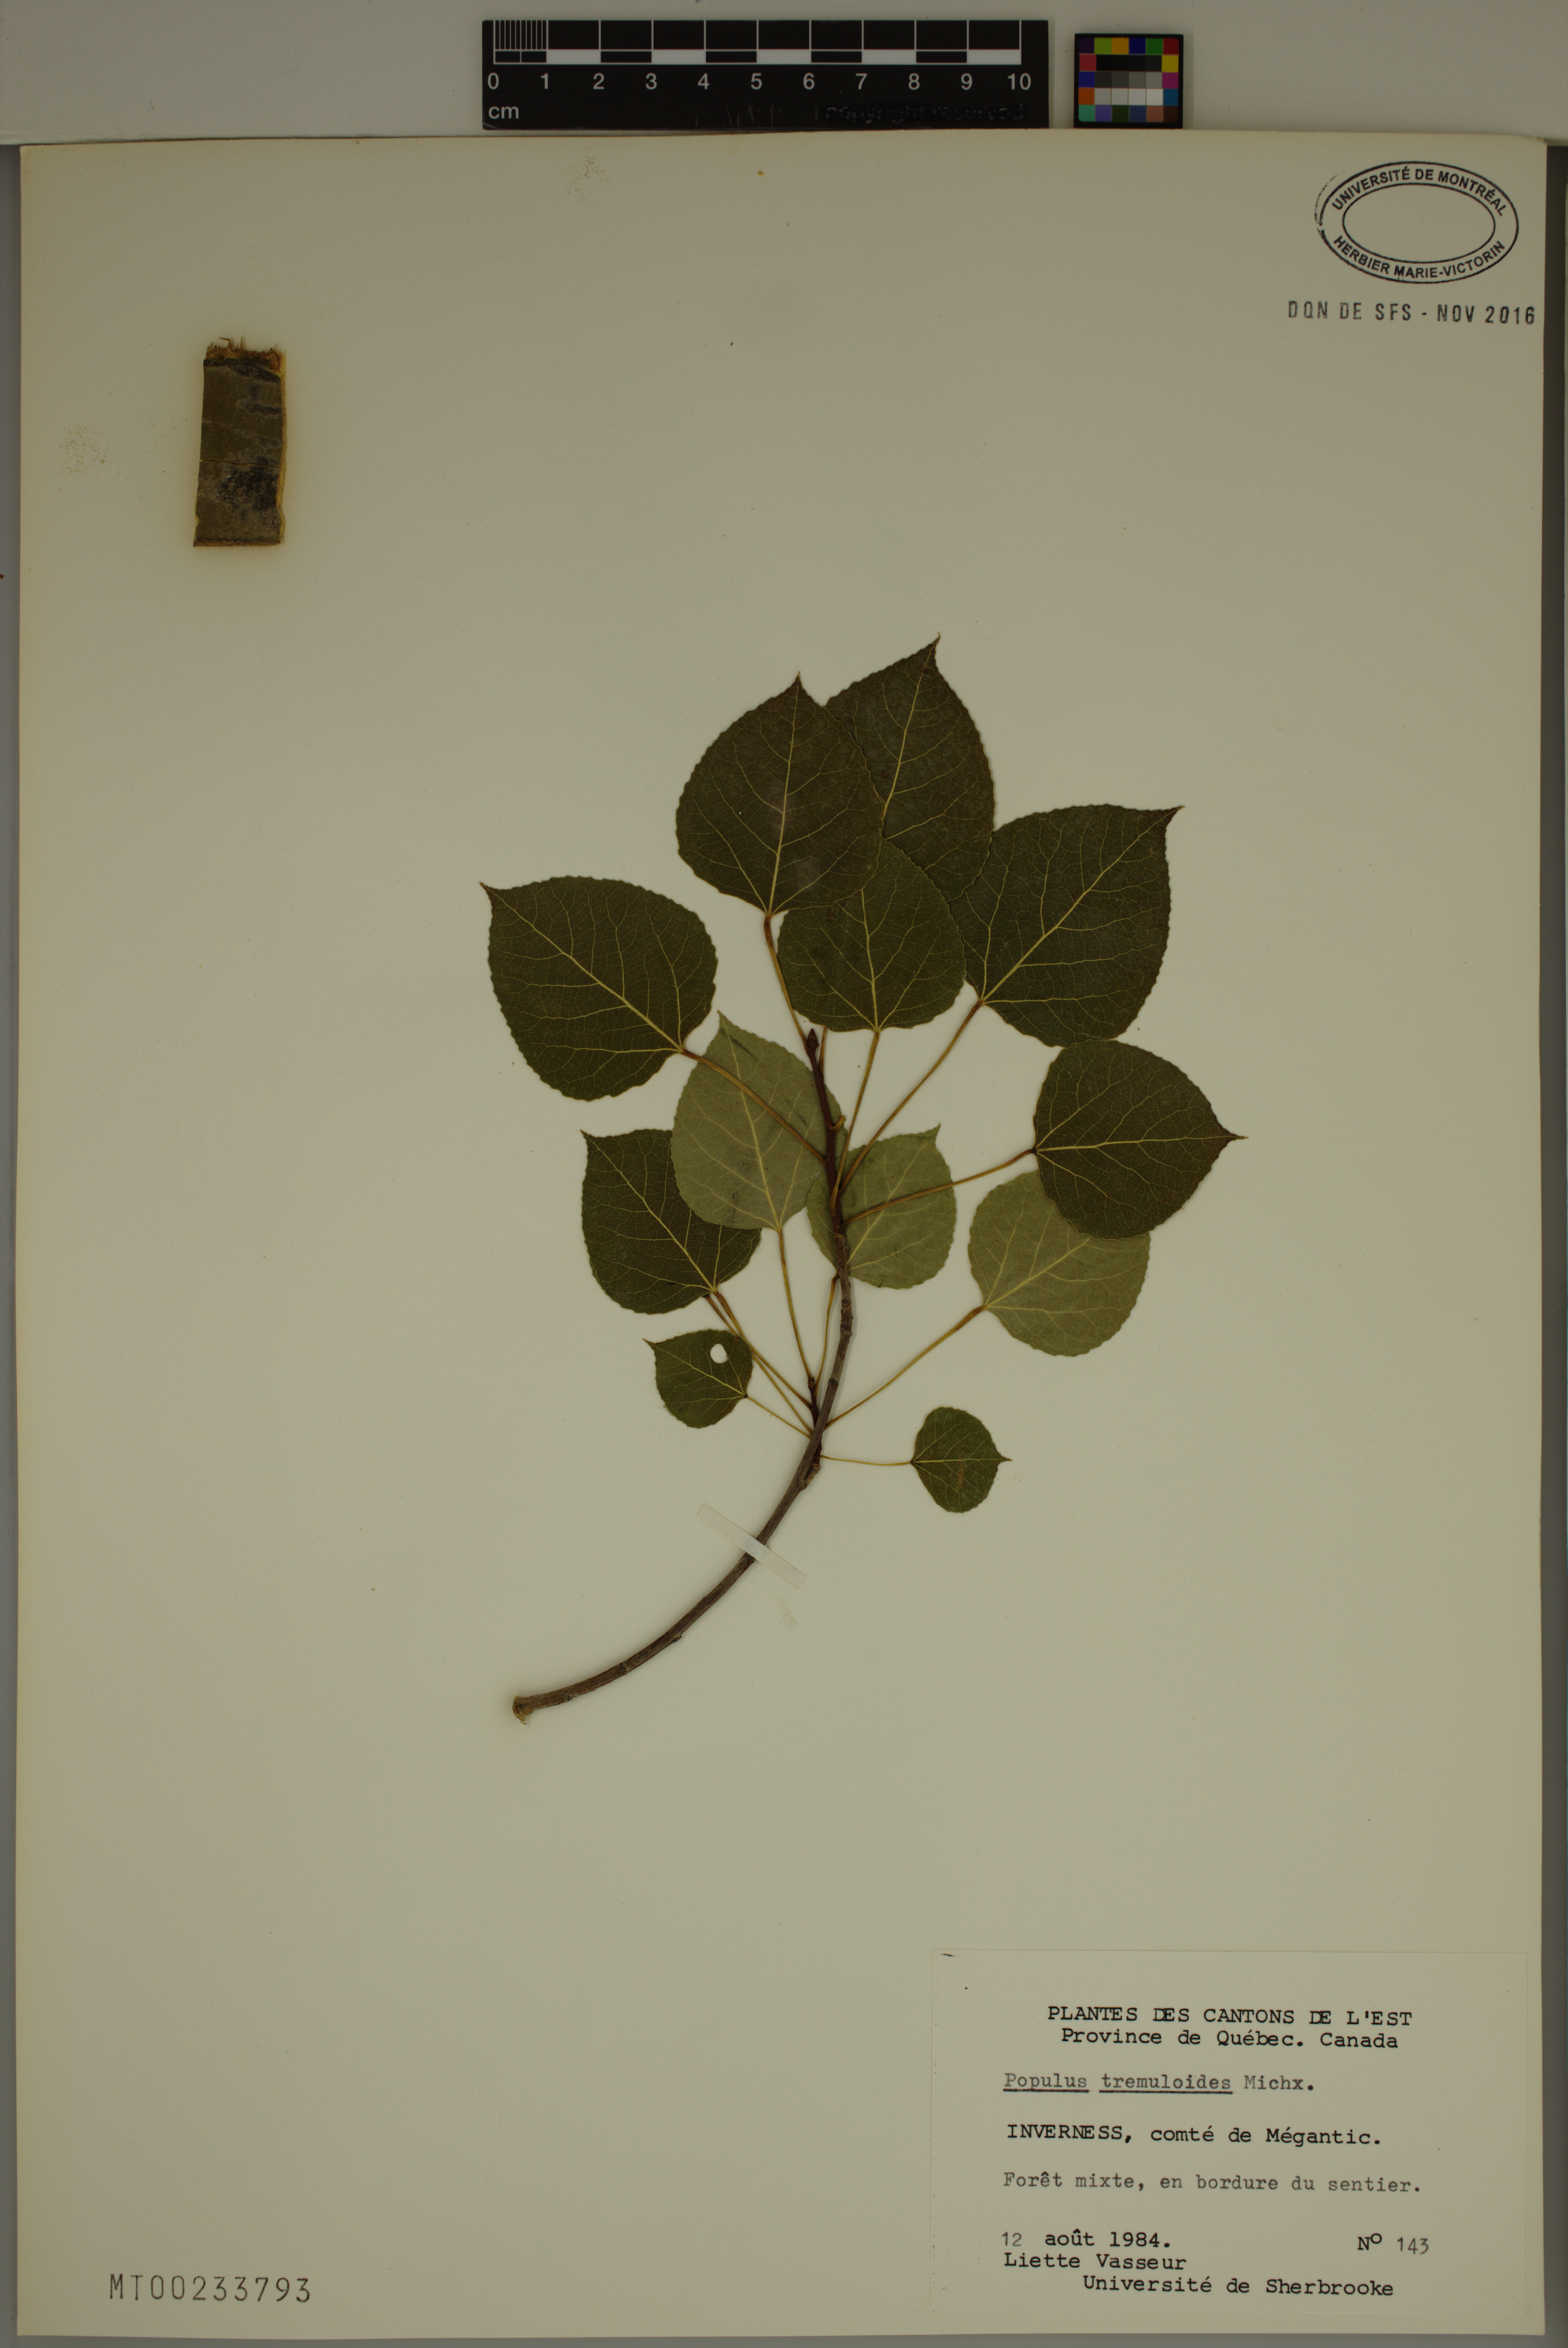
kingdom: Plantae
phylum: Tracheophyta
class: Magnoliopsida
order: Malpighiales
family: Salicaceae
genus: Populus
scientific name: Populus tremuloides
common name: Quaking aspen
